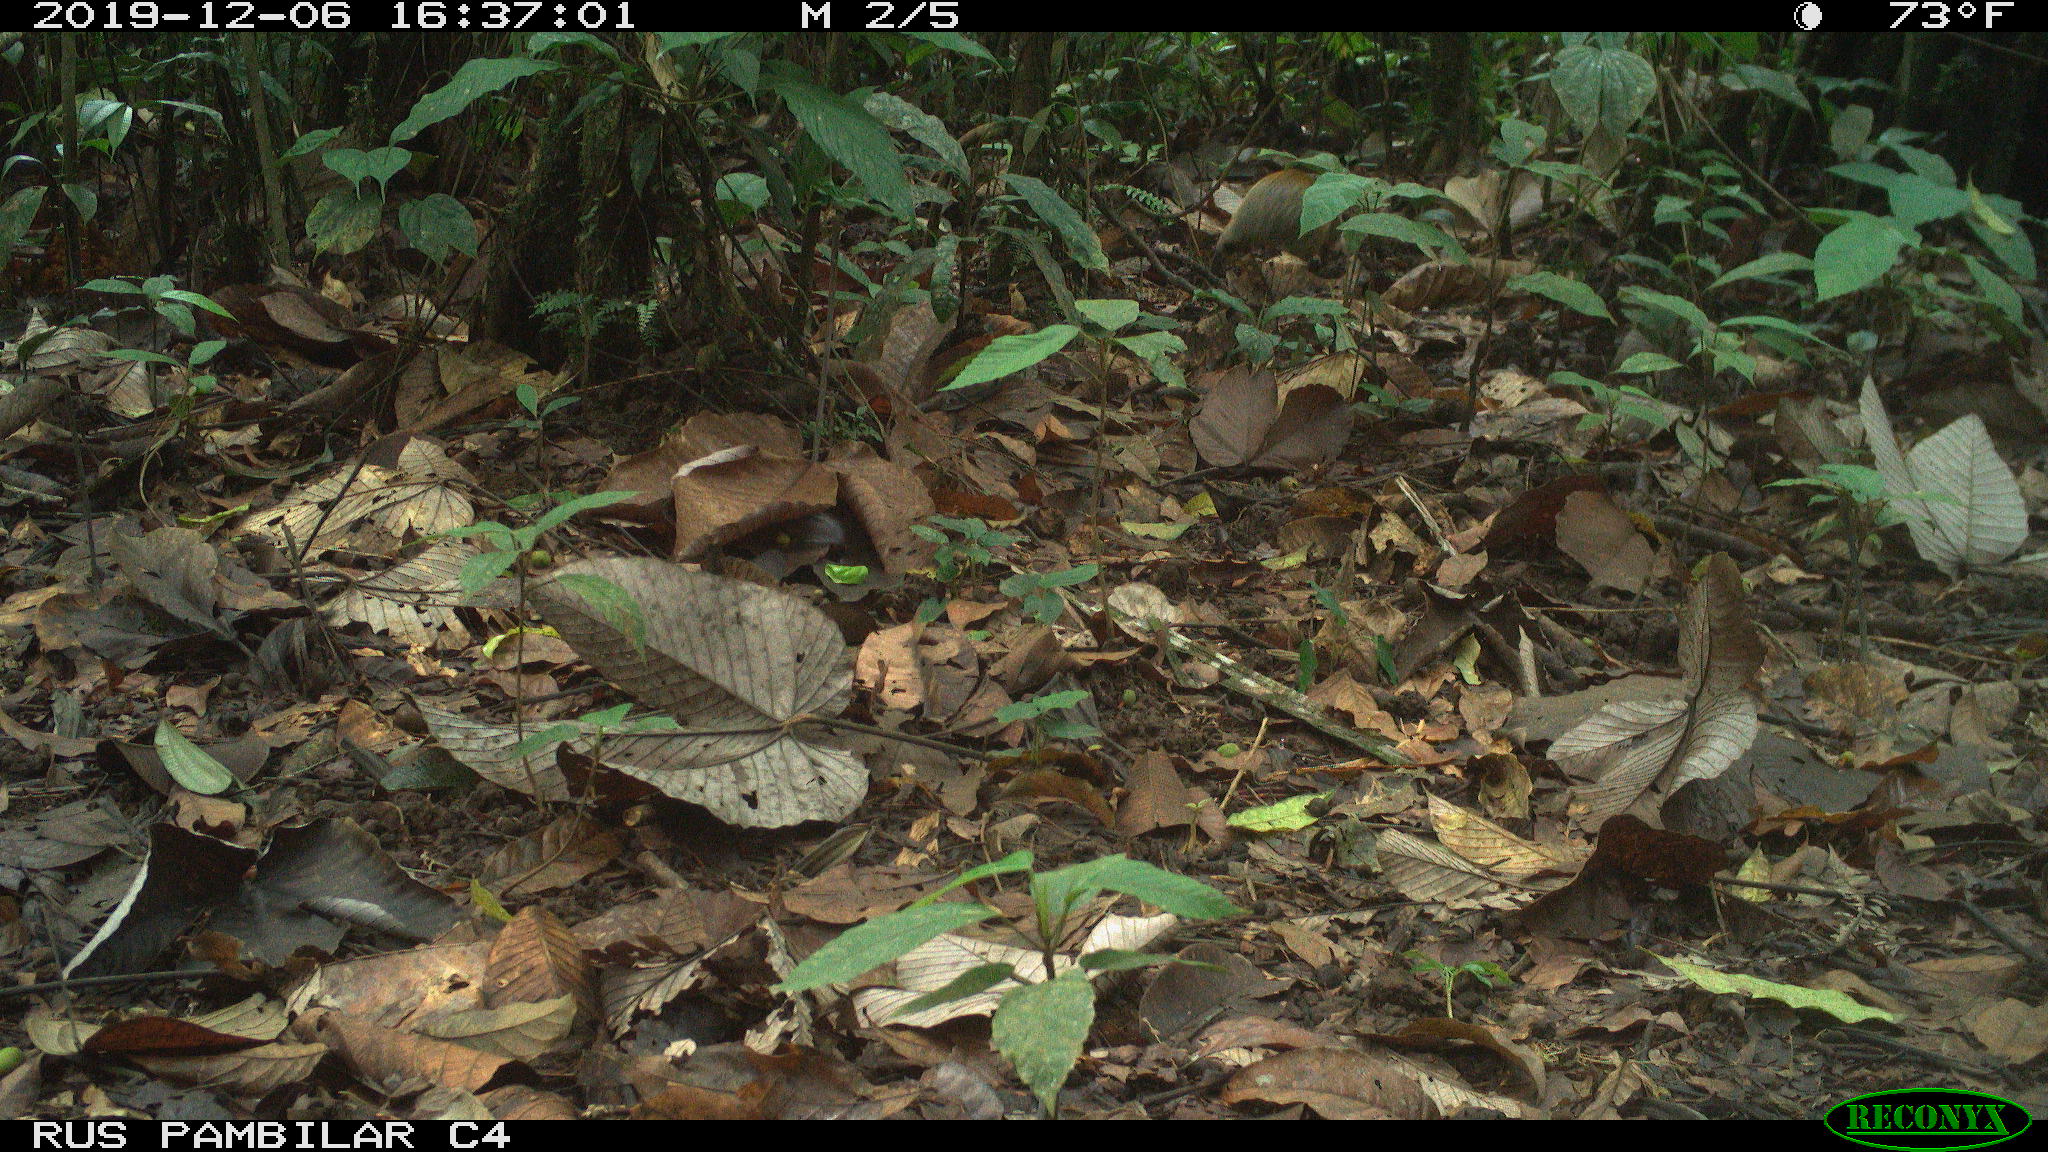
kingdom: Animalia
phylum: Chordata
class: Mammalia
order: Rodentia
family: Dasyproctidae
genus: Dasyprocta
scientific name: Dasyprocta punctata
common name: Central american agouti
